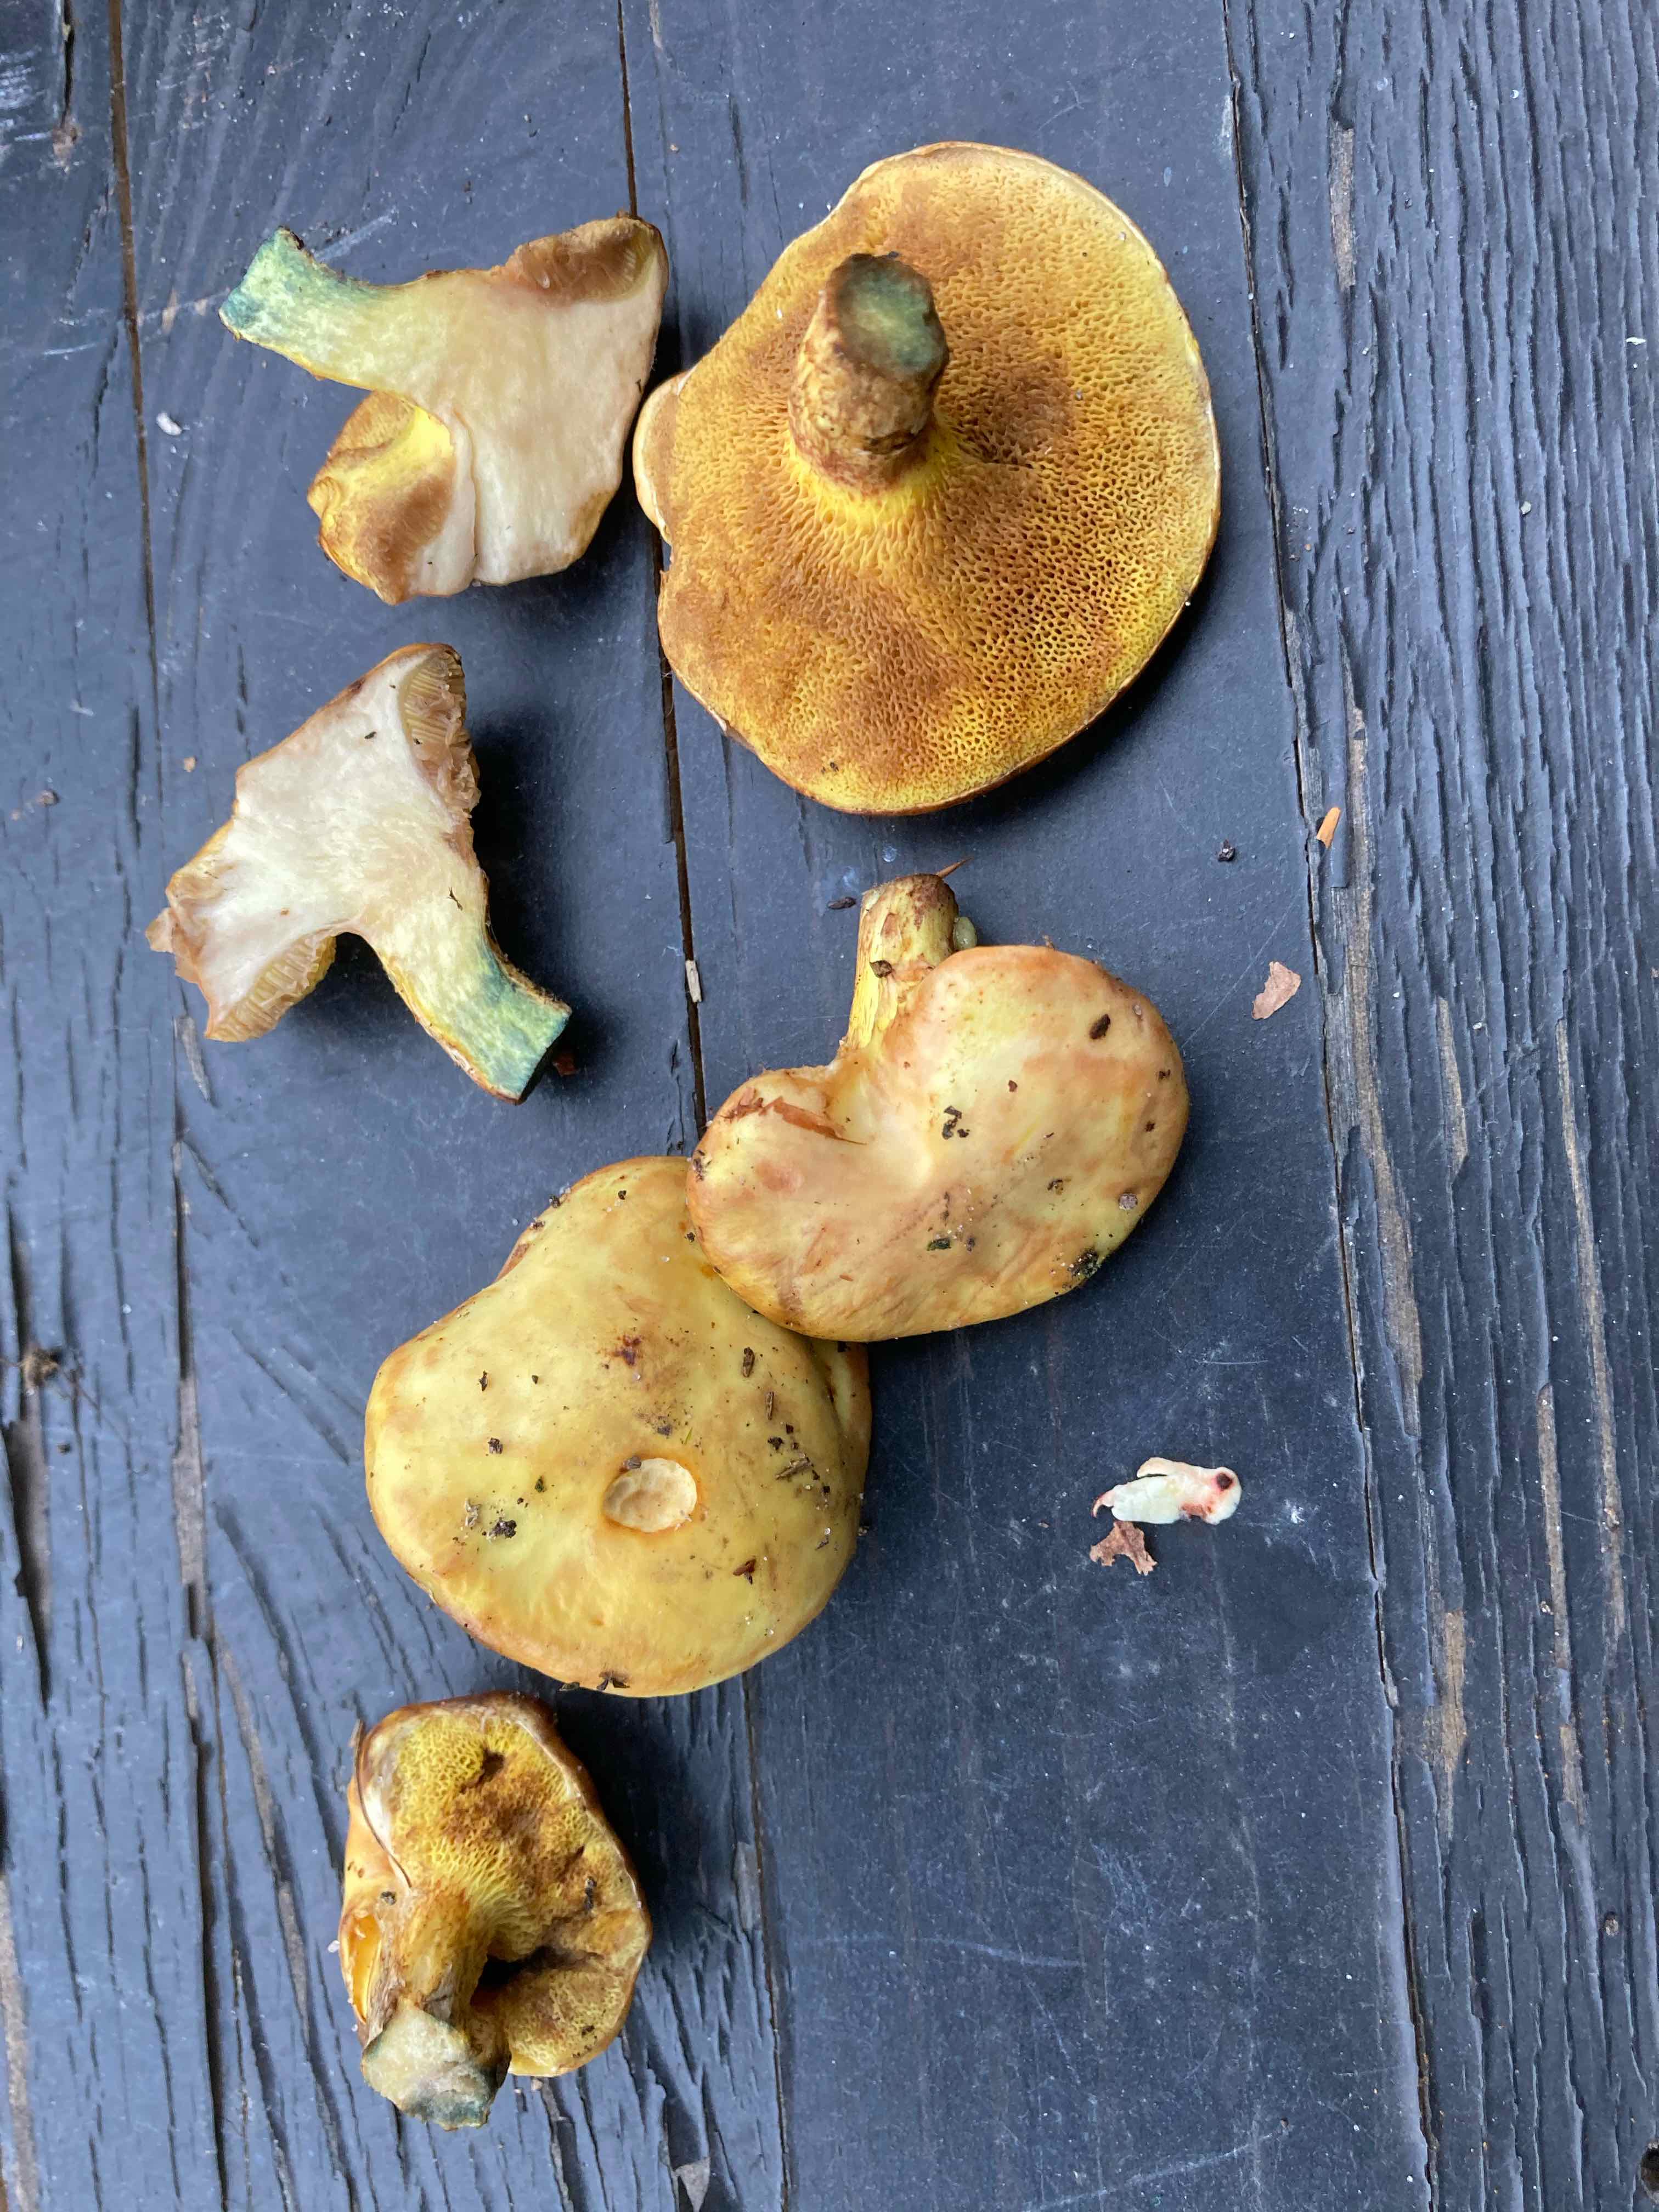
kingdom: Fungi
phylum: Basidiomycota
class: Agaricomycetes
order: Boletales
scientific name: Boletales
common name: rørhatordenen
